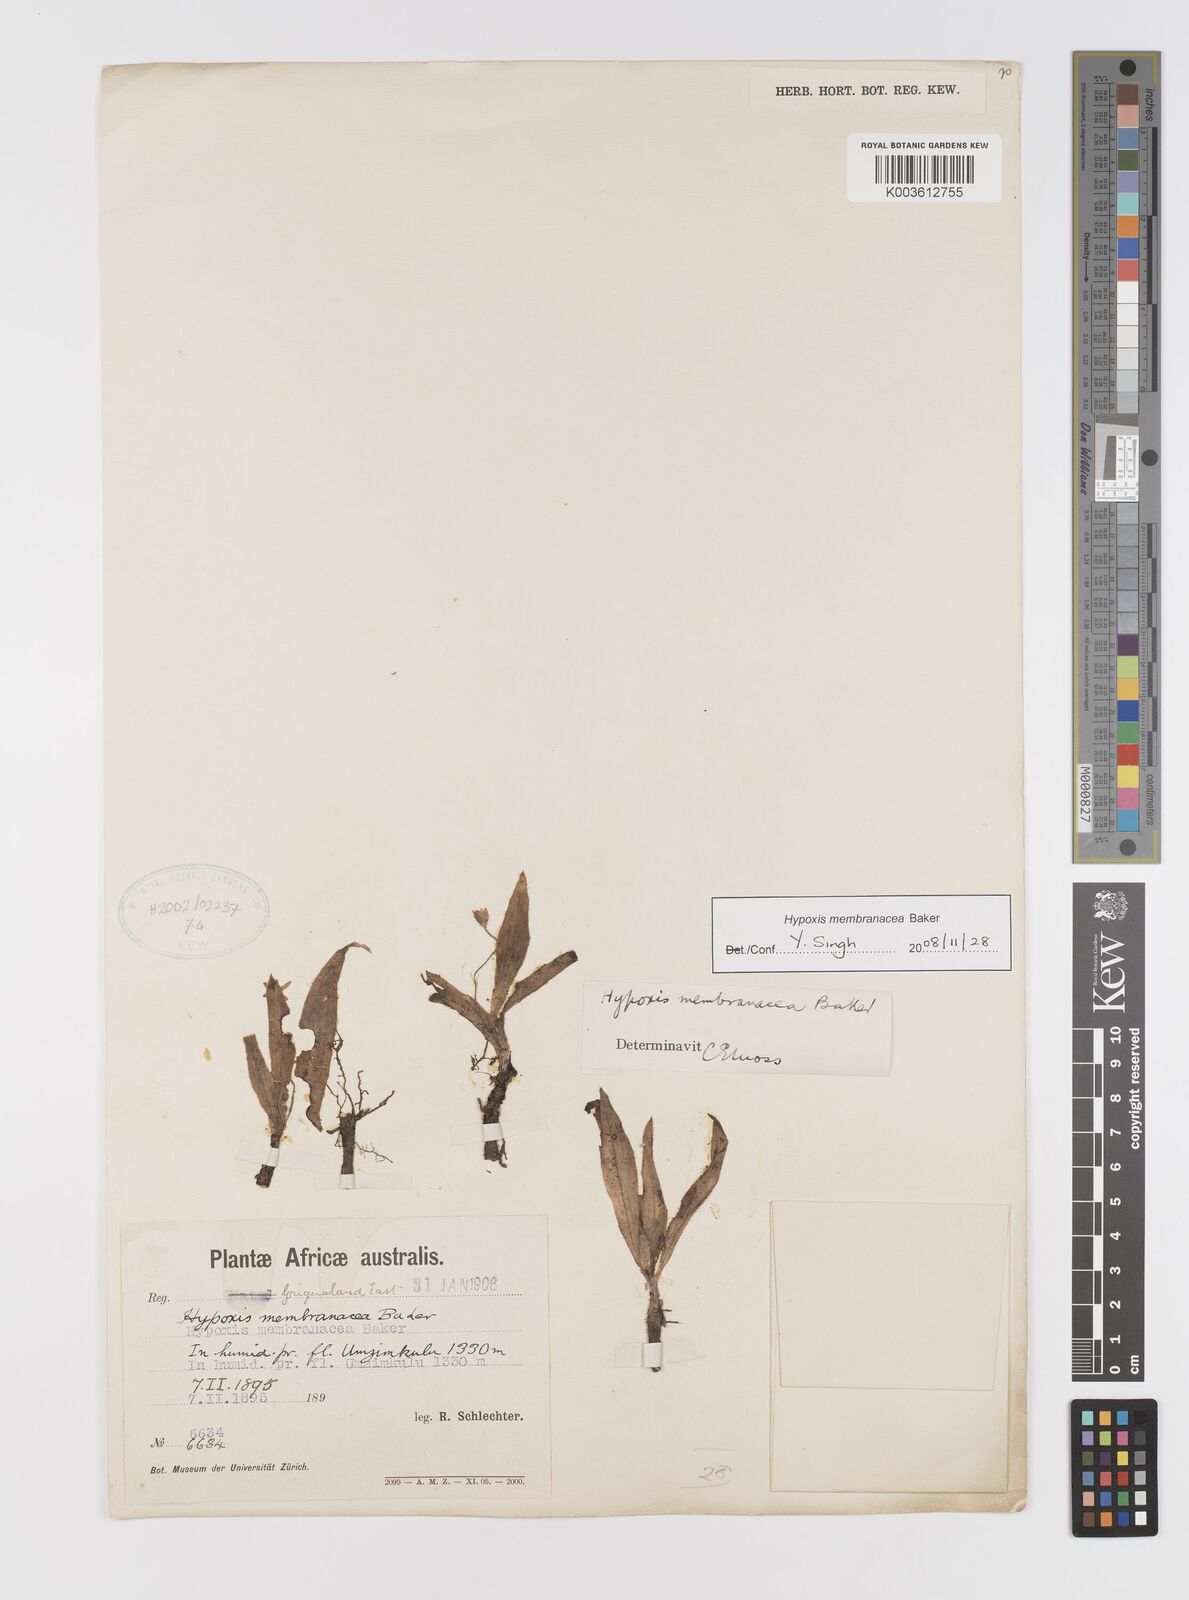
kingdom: Plantae
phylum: Tracheophyta
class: Liliopsida
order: Asparagales
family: Hypoxidaceae
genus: Hypoxis
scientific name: Hypoxis membranacea
